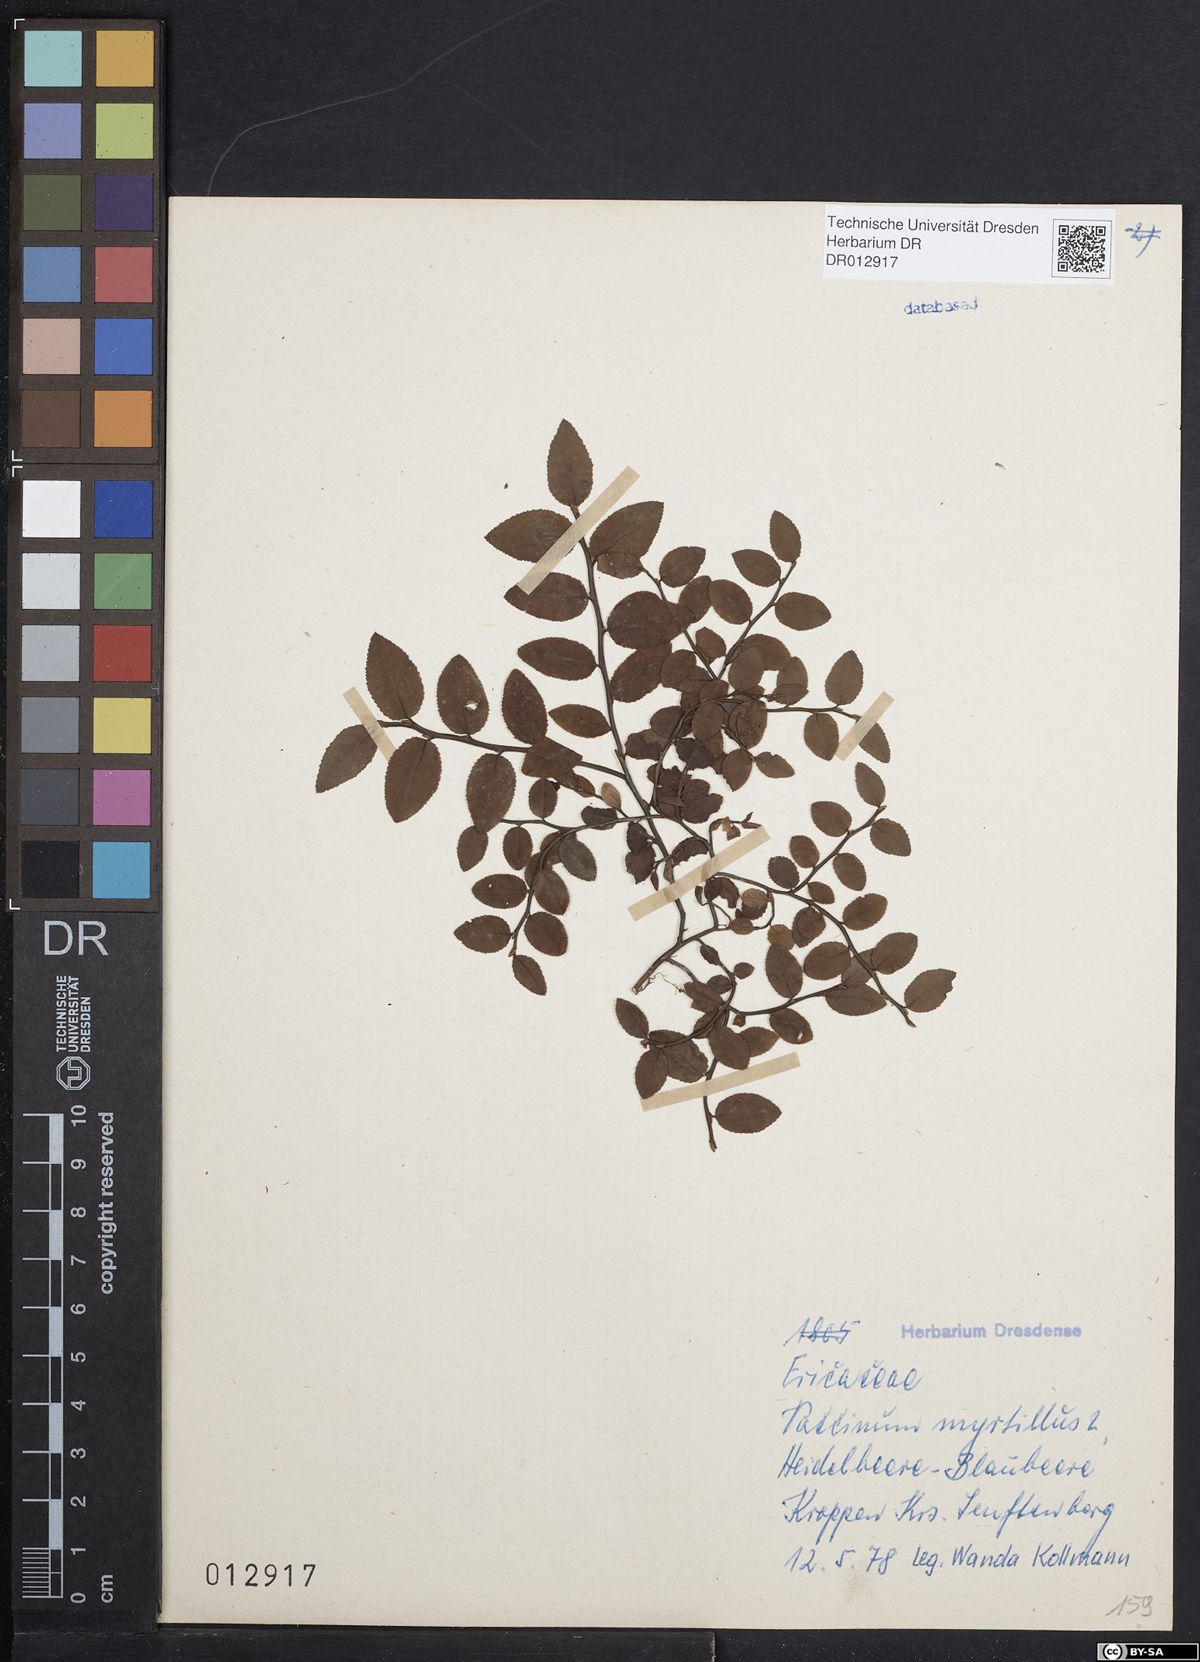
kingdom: Plantae
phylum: Tracheophyta
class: Magnoliopsida
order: Ericales
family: Ericaceae
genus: Vaccinium
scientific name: Vaccinium myrtillus
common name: Bilberry
